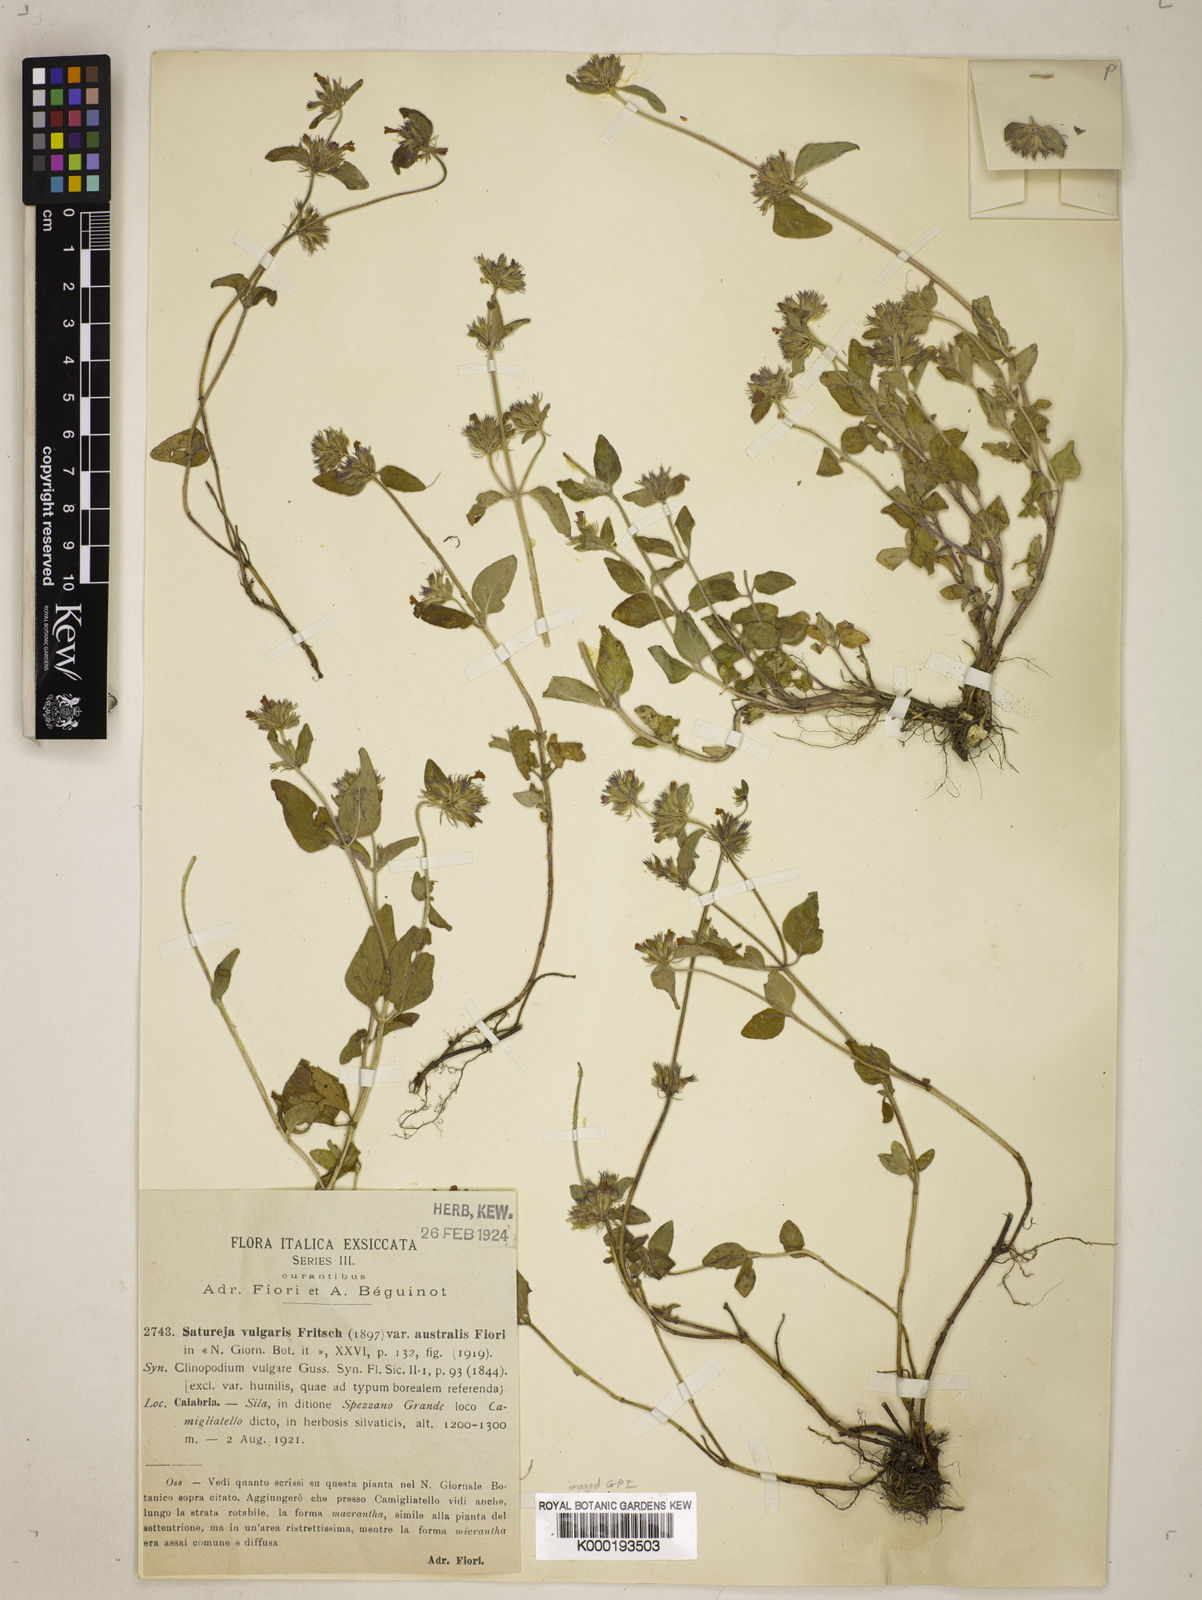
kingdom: Plantae
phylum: Tracheophyta
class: Magnoliopsida
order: Lamiales
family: Lamiaceae
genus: Clinopodium
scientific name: Clinopodium
